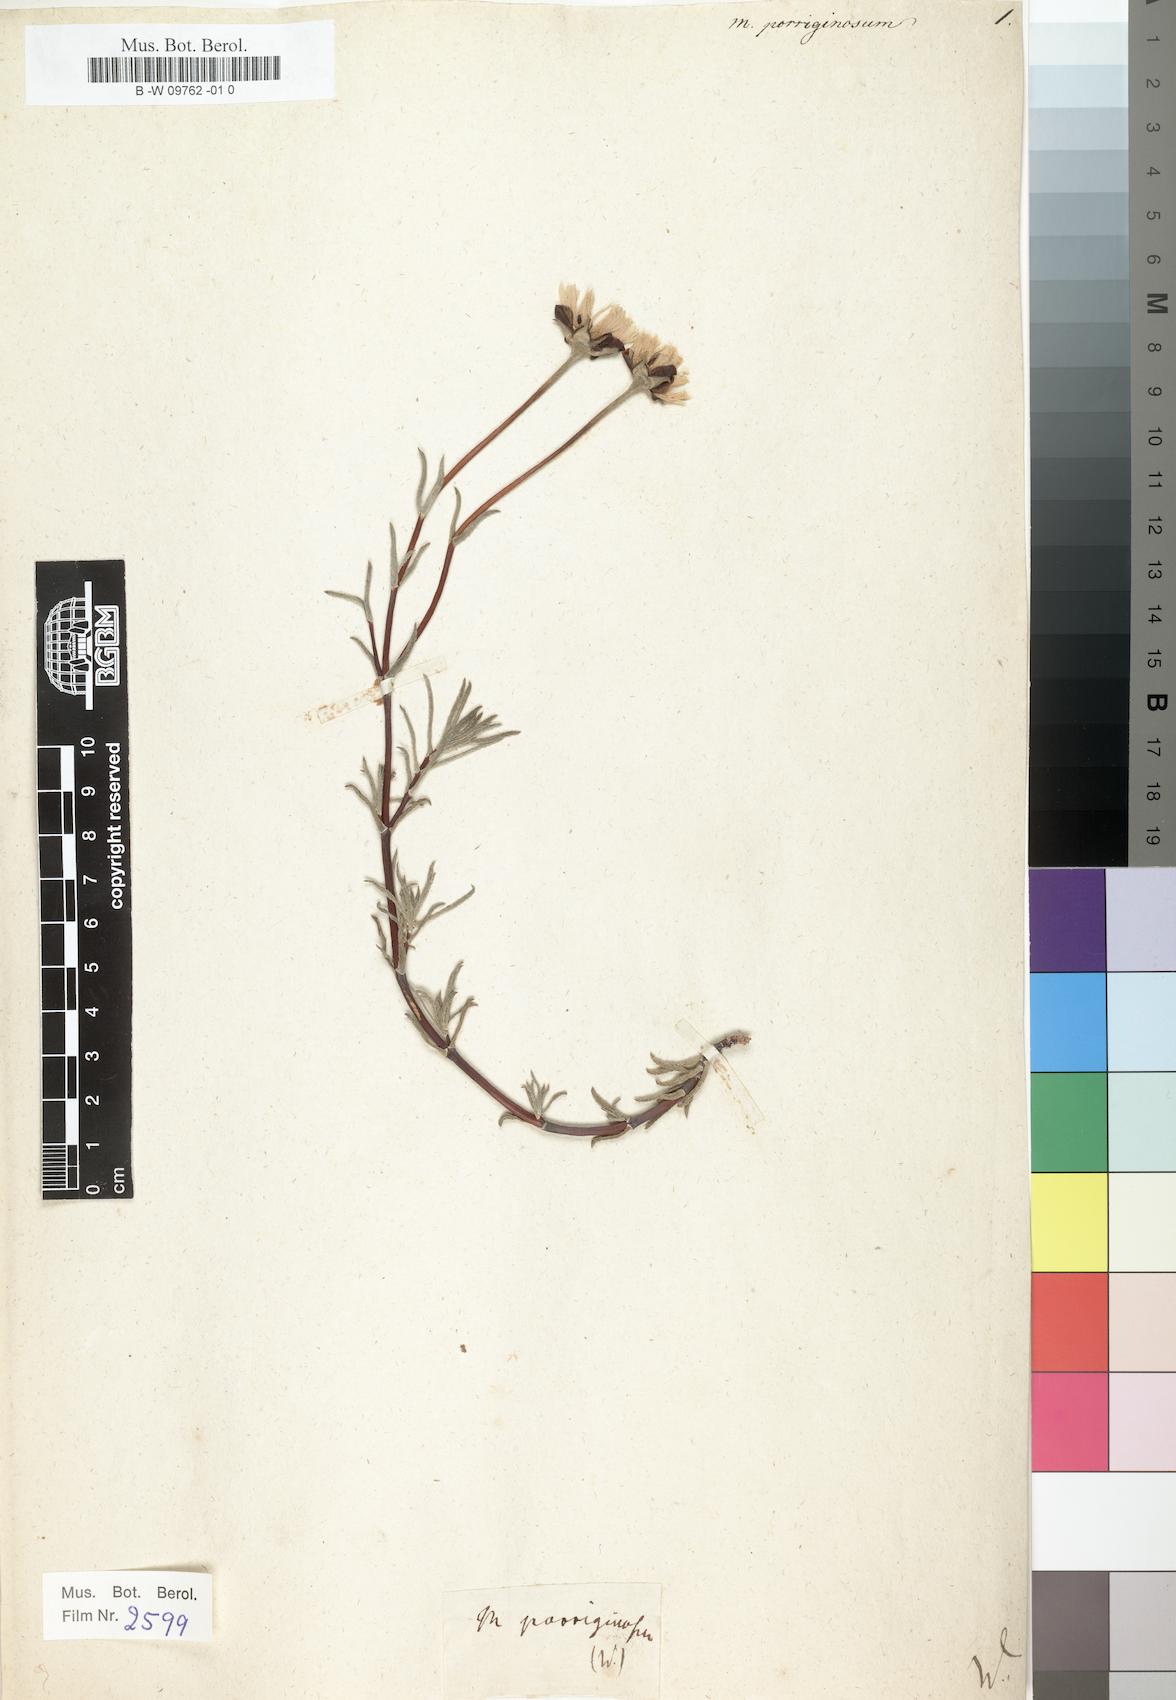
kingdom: Plantae
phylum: Tracheophyta
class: Magnoliopsida
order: Caryophyllales
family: Aizoaceae
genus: Mesembryanthemum
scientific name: Mesembryanthemum
